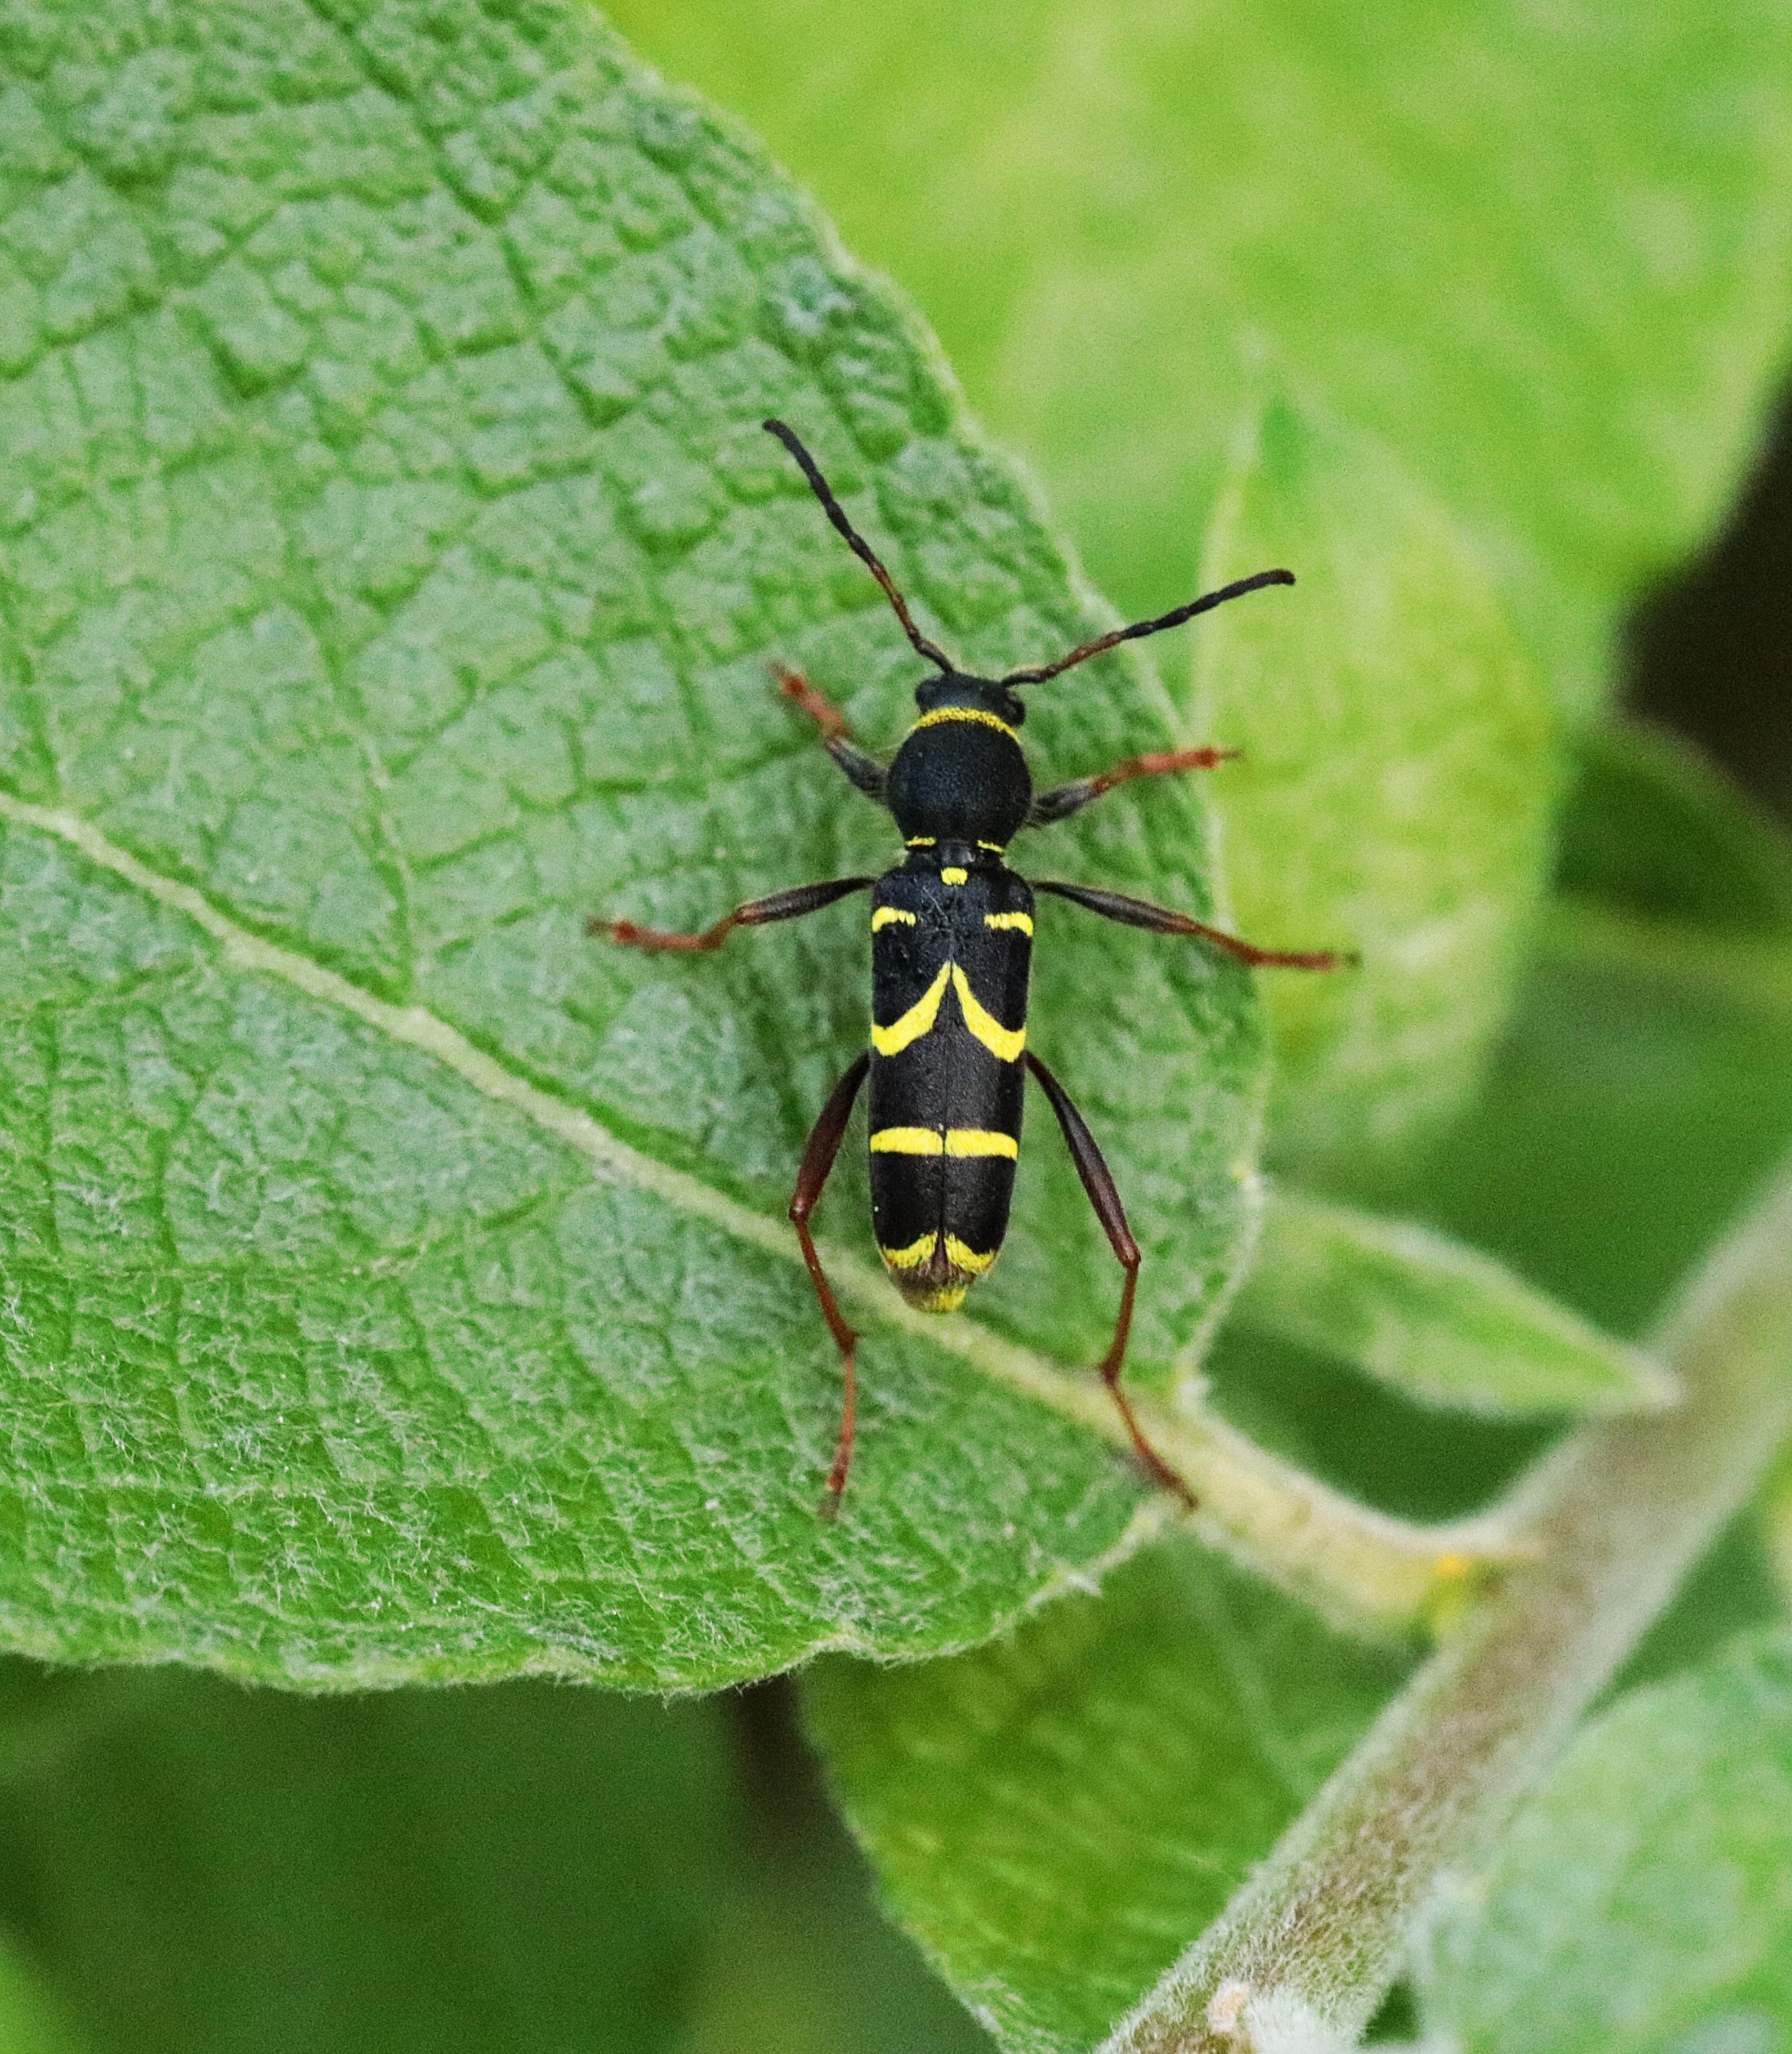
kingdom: Animalia
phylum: Arthropoda
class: Insecta
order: Coleoptera
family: Cerambycidae
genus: Clytus
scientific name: Clytus arietis
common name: Lille hvepsebuk
